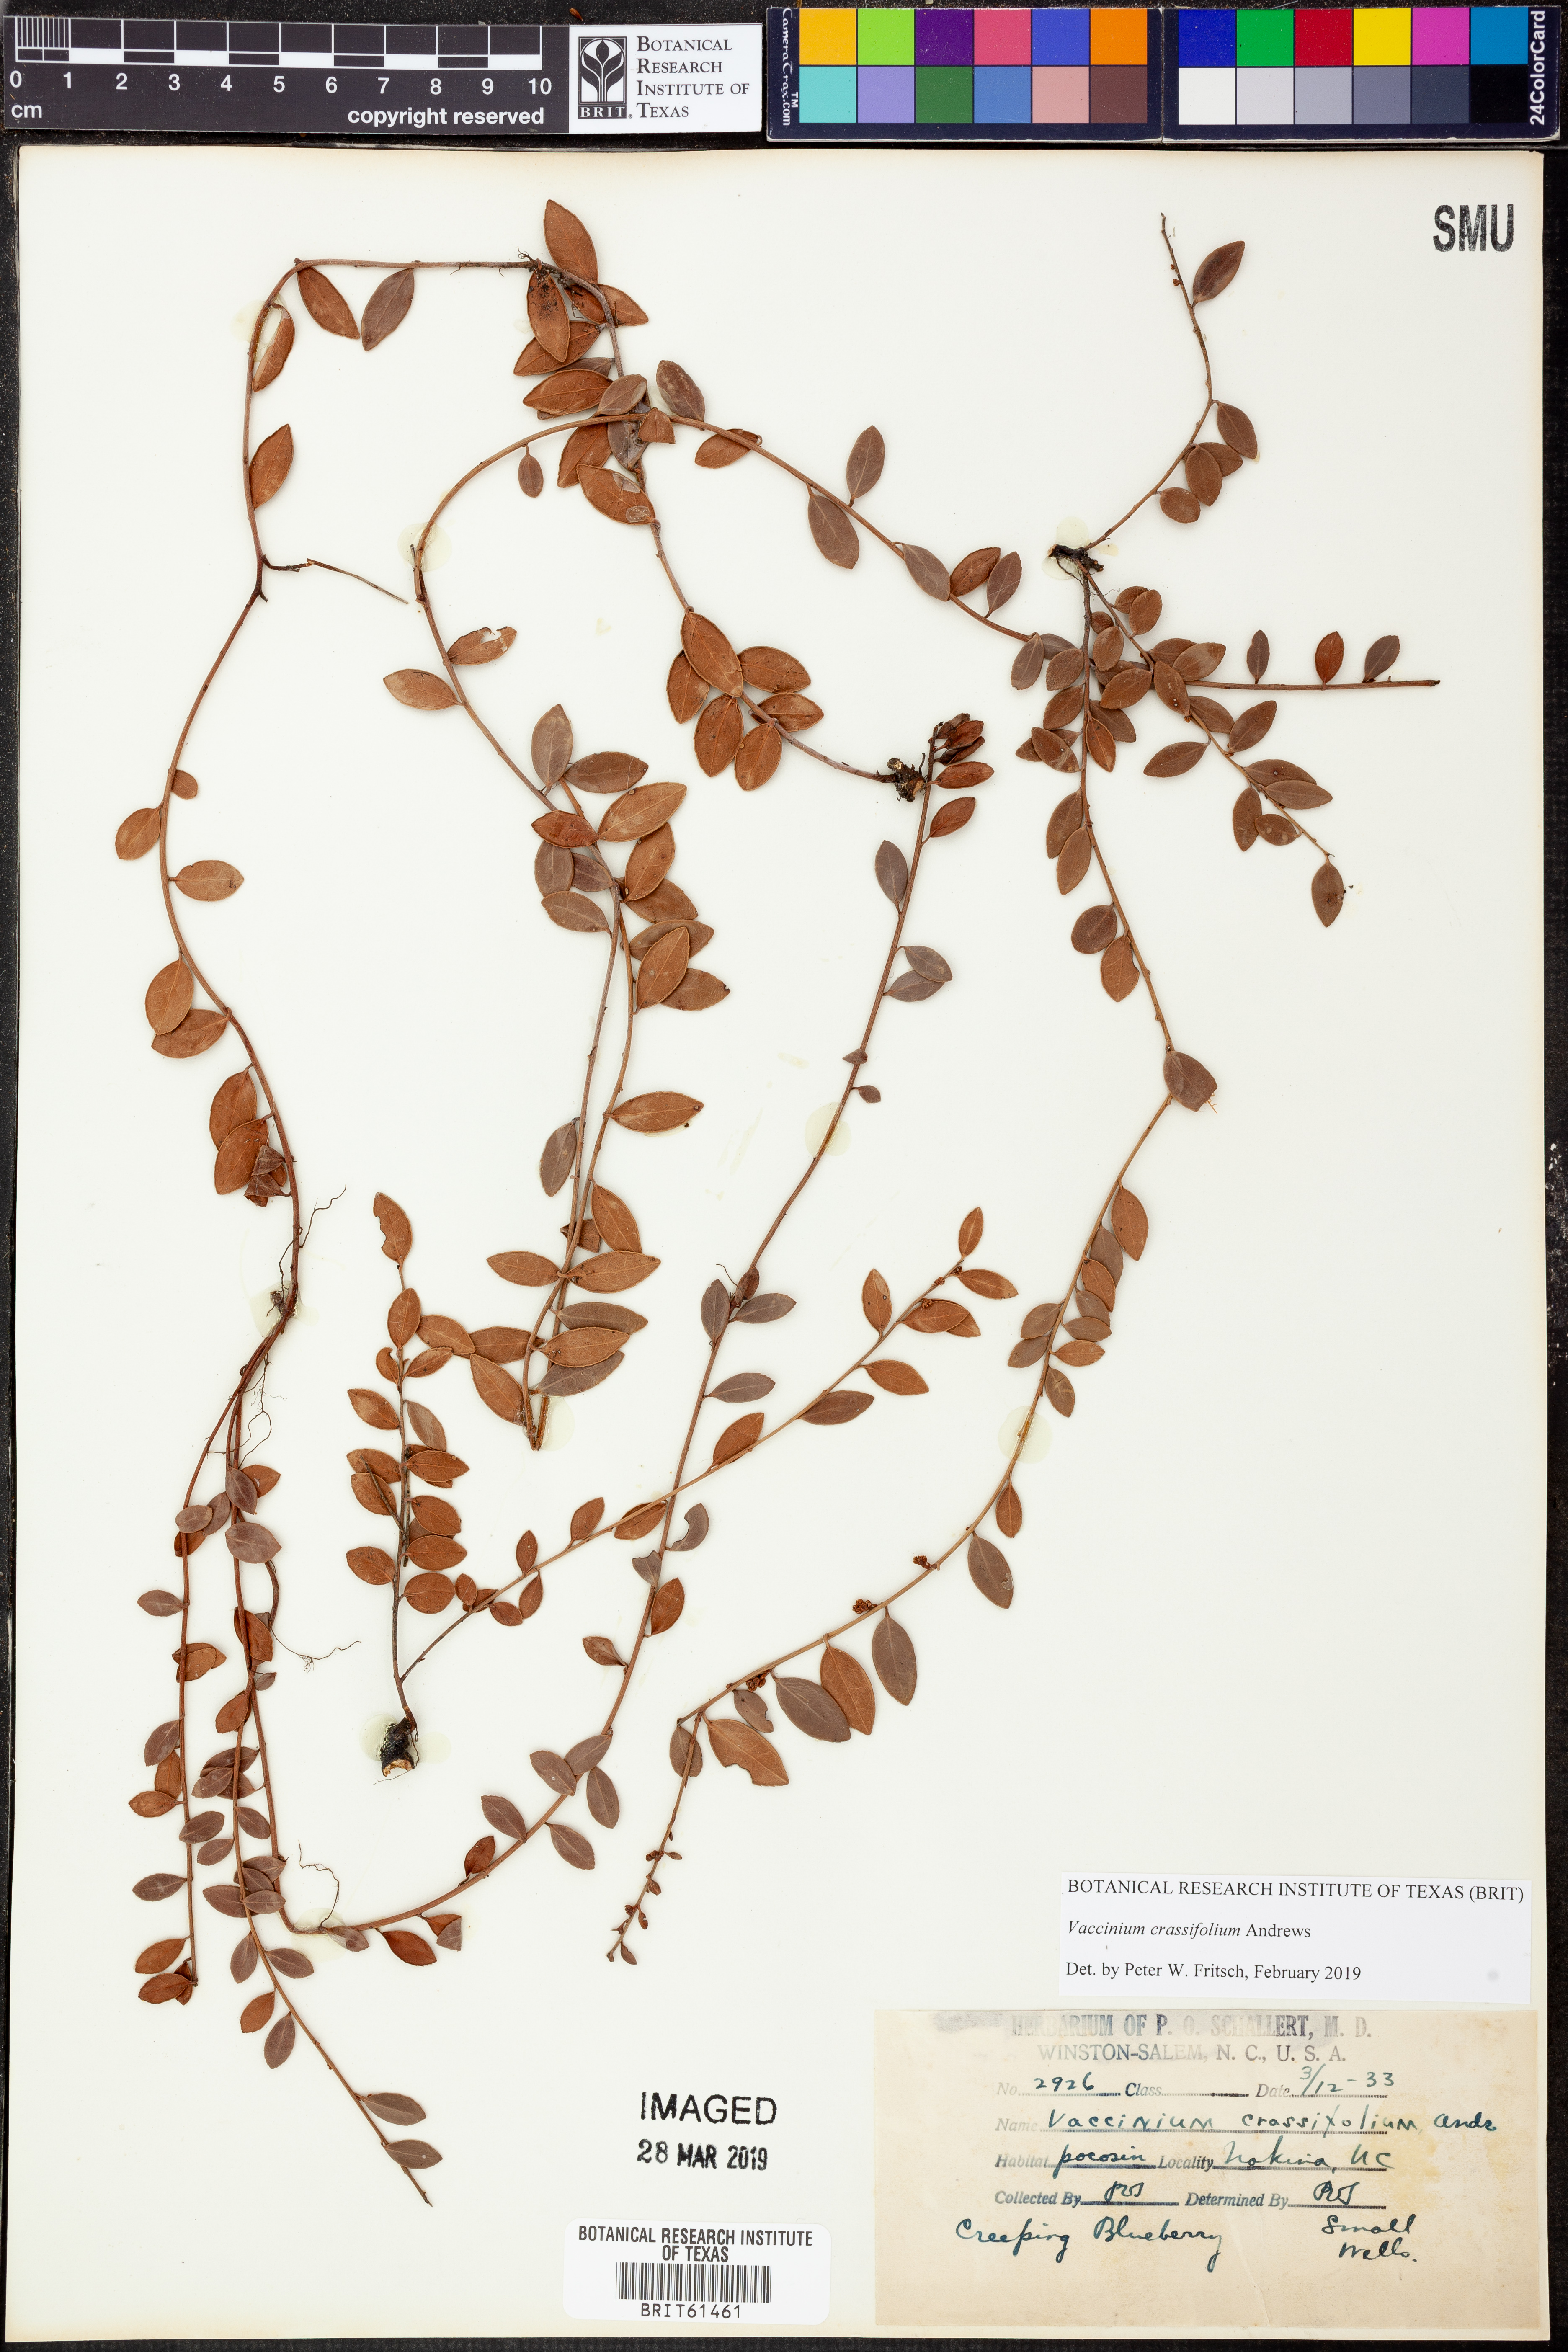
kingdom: Plantae
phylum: Tracheophyta
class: Magnoliopsida
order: Ericales
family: Ericaceae
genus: Vaccinium
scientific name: Vaccinium crassifolium
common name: Creeping blueberry
